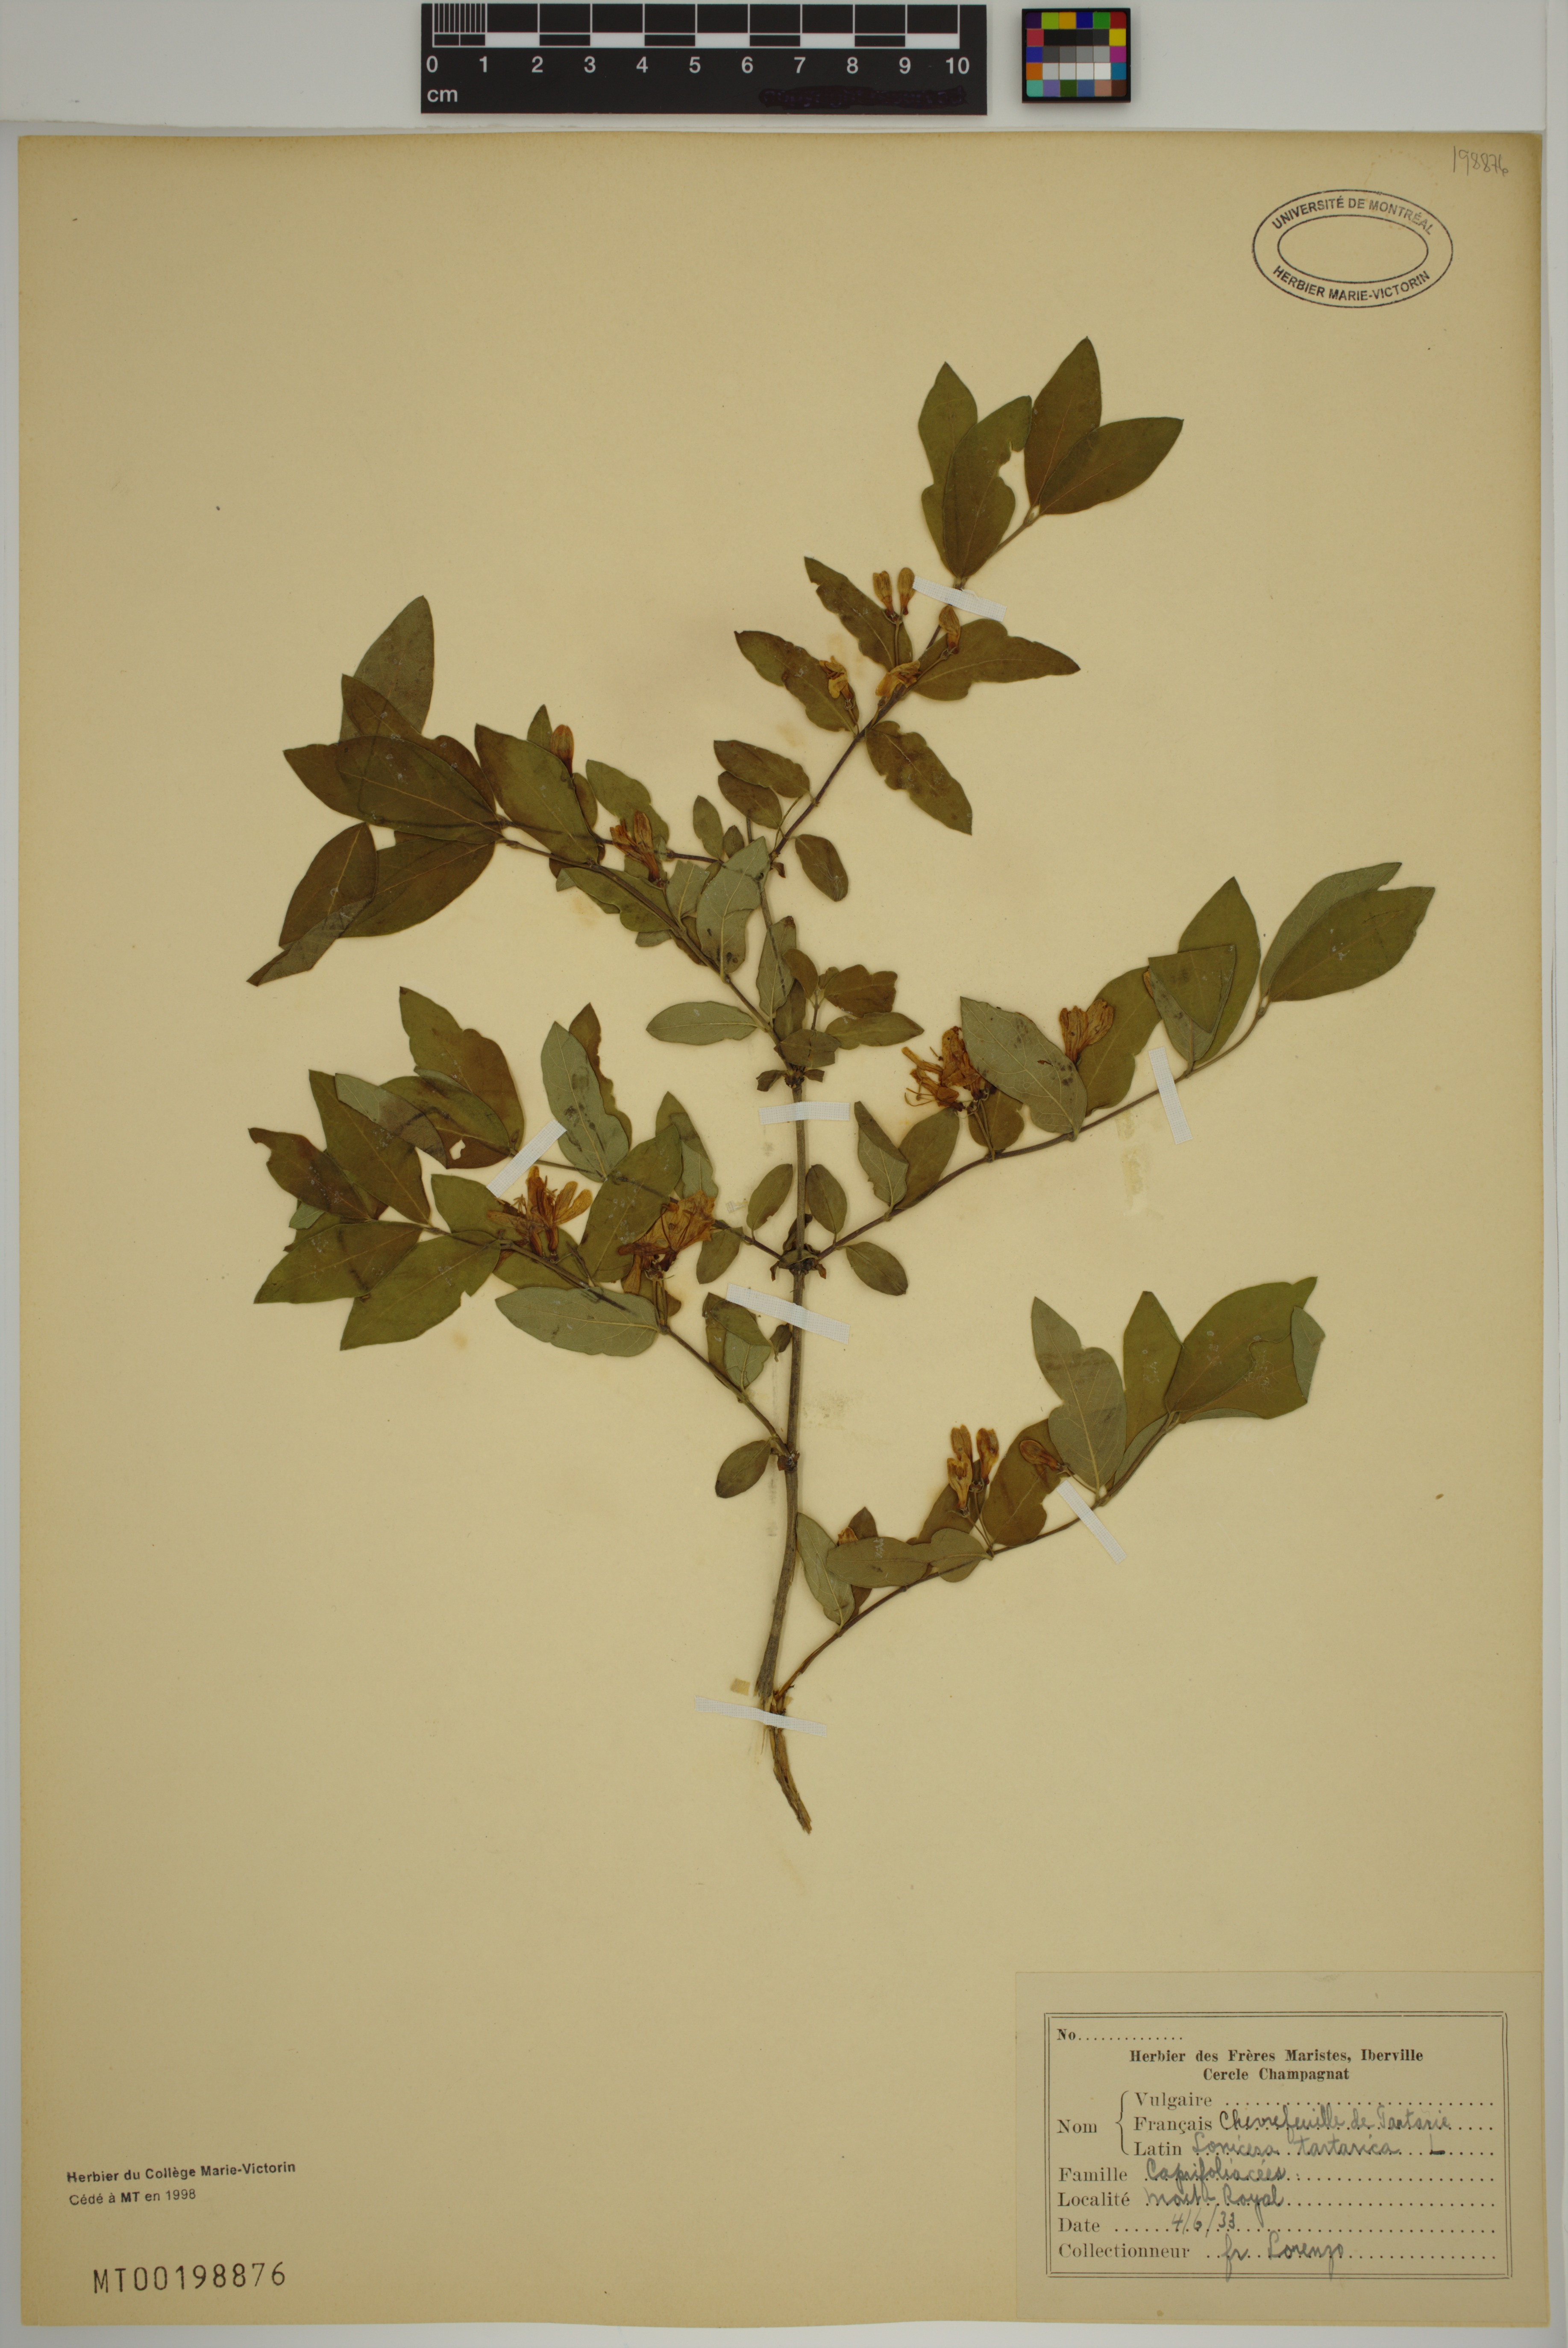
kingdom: Plantae
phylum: Tracheophyta
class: Magnoliopsida
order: Dipsacales
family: Caprifoliaceae
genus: Lonicera
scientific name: Lonicera bella
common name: Bell's honeysuckle
